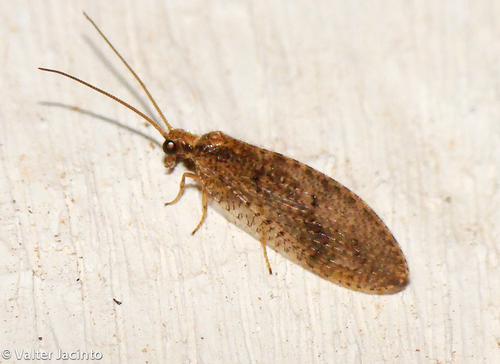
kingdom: Animalia
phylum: Arthropoda
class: Insecta
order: Neuroptera
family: Hemerobiidae
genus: Wesmaelius
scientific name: Wesmaelius subnebulosus
